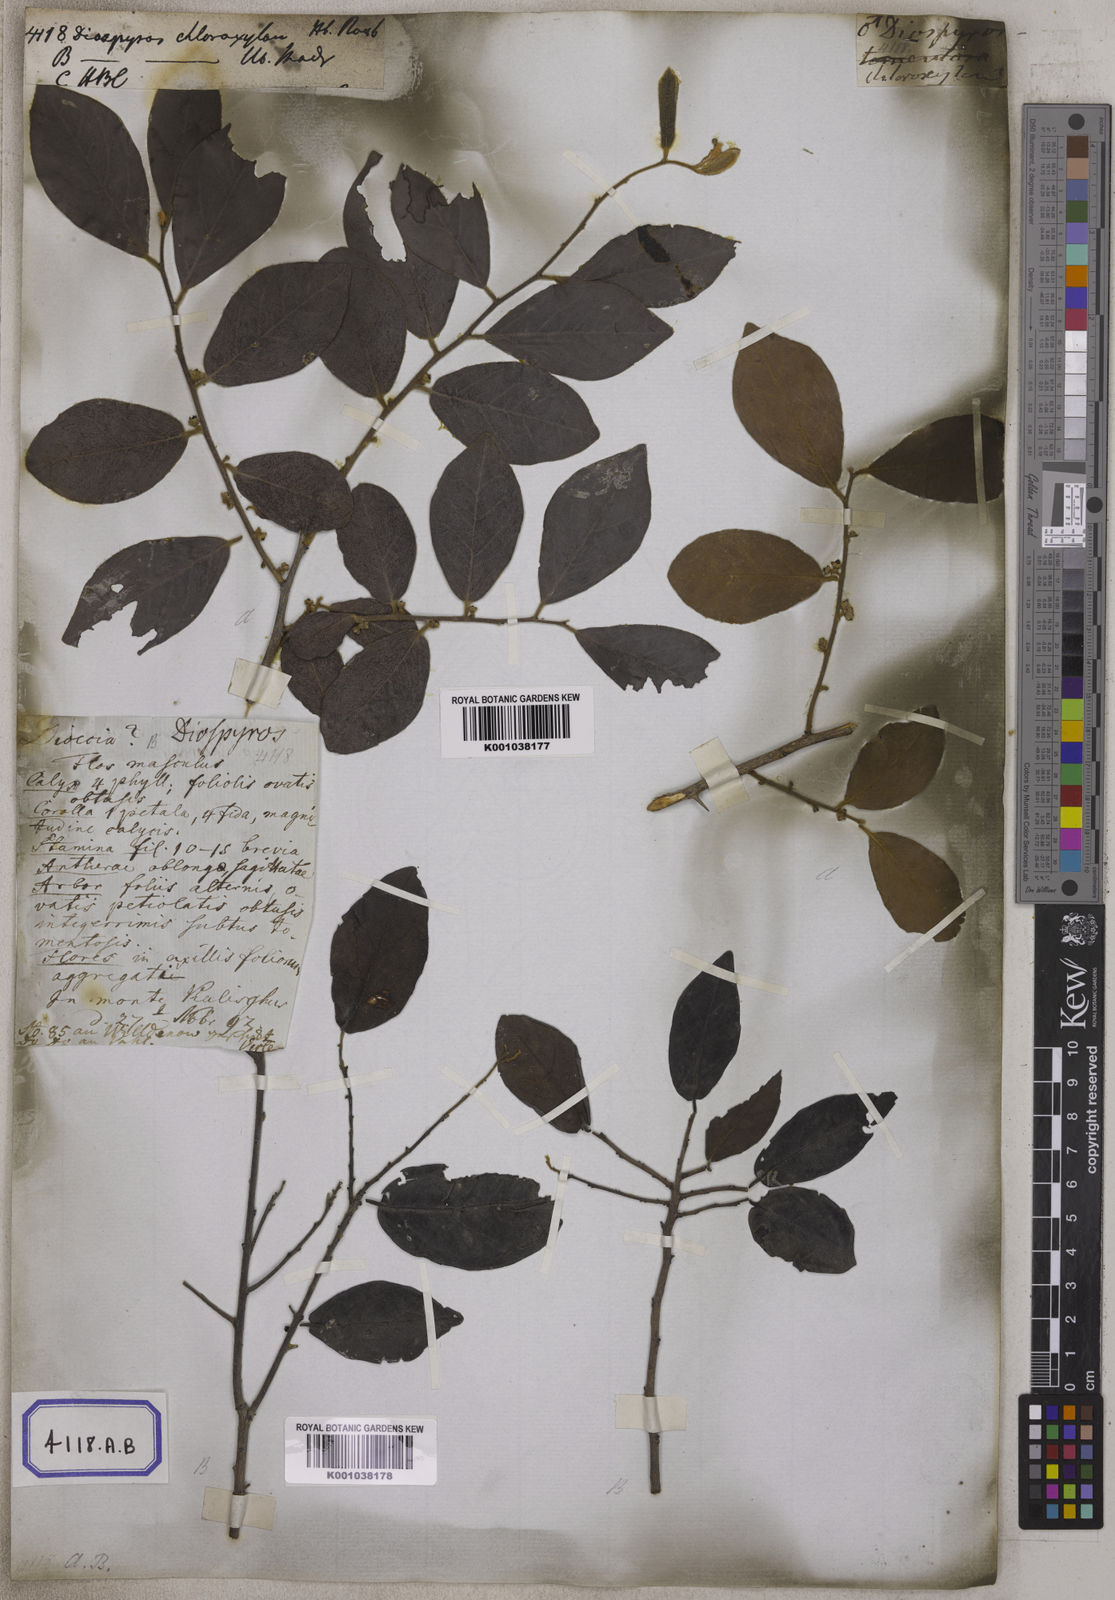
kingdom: Plantae
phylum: Tracheophyta
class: Magnoliopsida
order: Ericales
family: Ebenaceae
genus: Diospyros
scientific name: Diospyros chloroxylon
